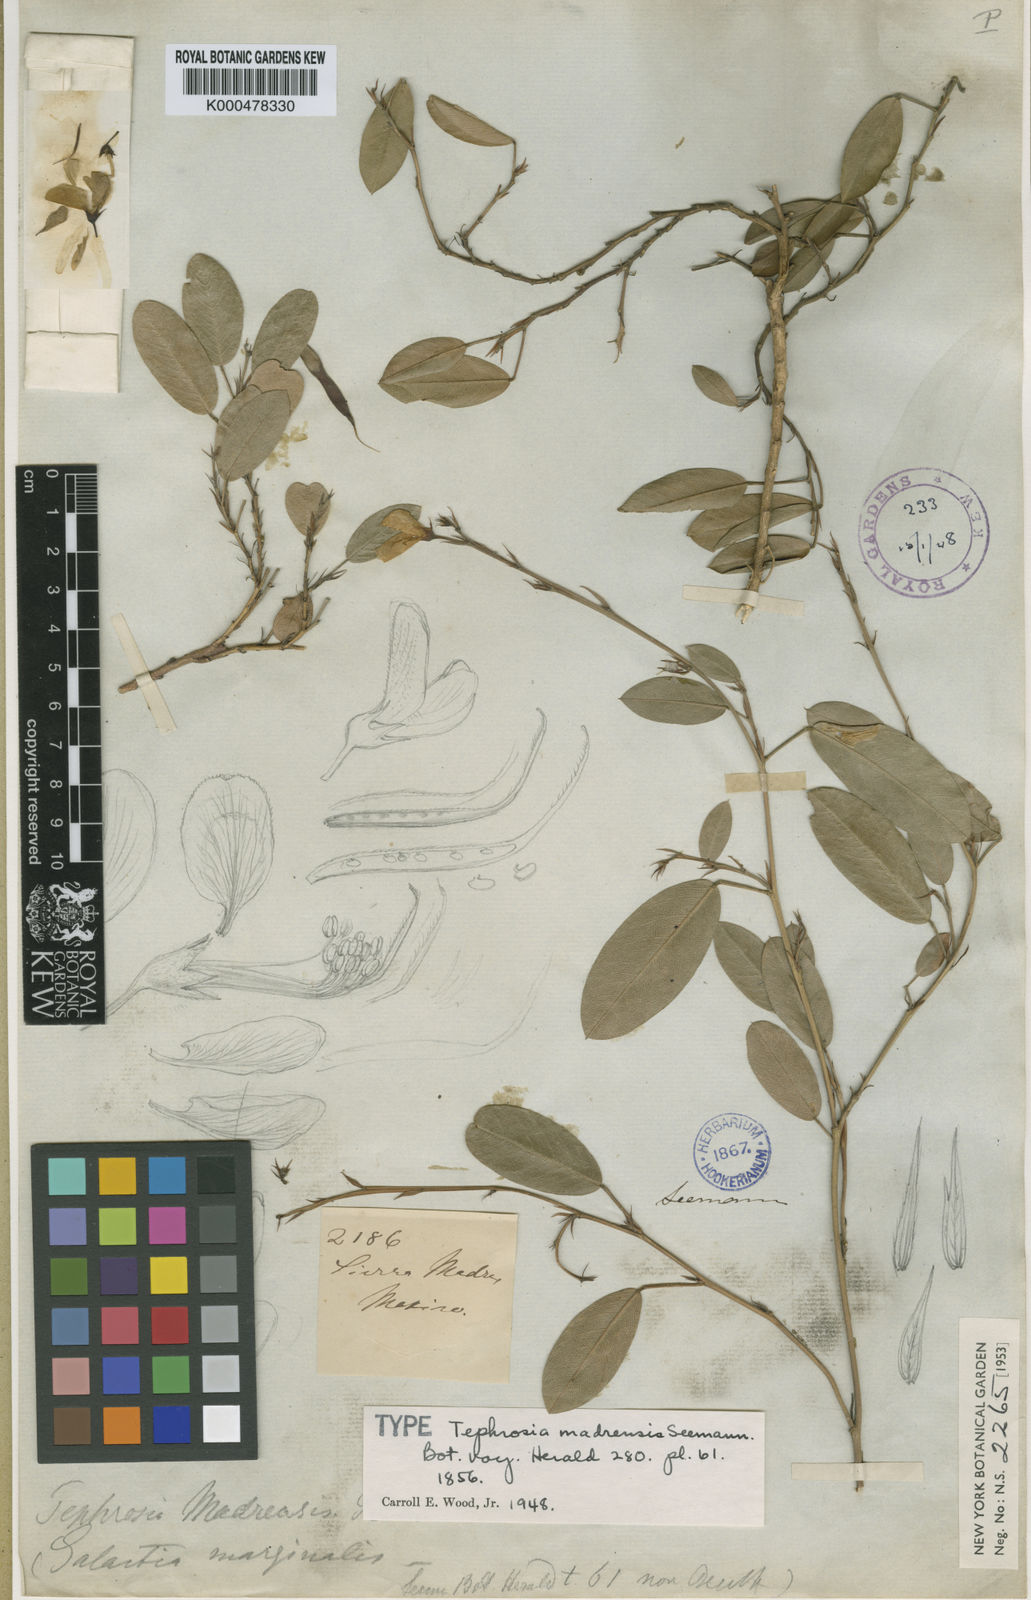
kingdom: Plantae
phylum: Tracheophyta
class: Magnoliopsida
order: Fabales
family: Fabaceae
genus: Tephrosia
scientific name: Tephrosia madrensis
